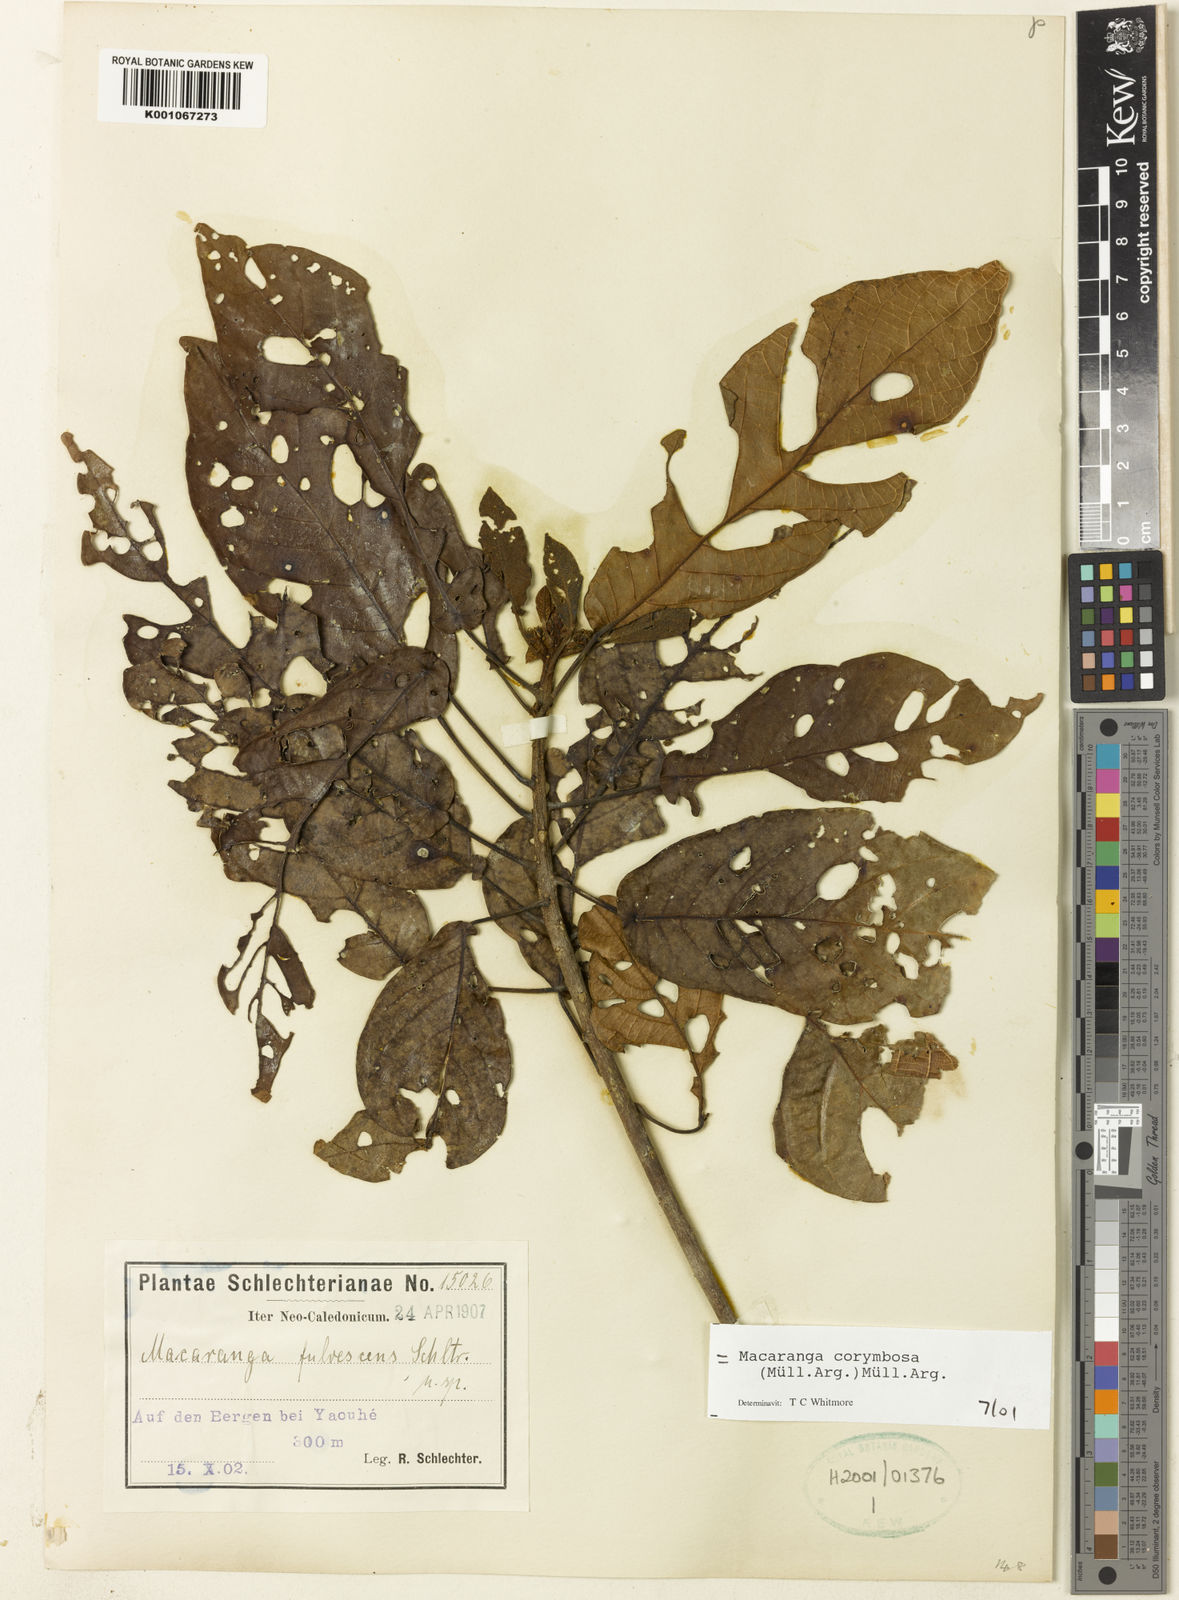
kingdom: Plantae
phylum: Tracheophyta
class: Magnoliopsida
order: Malpighiales
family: Euphorbiaceae
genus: Macaranga
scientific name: Macaranga
